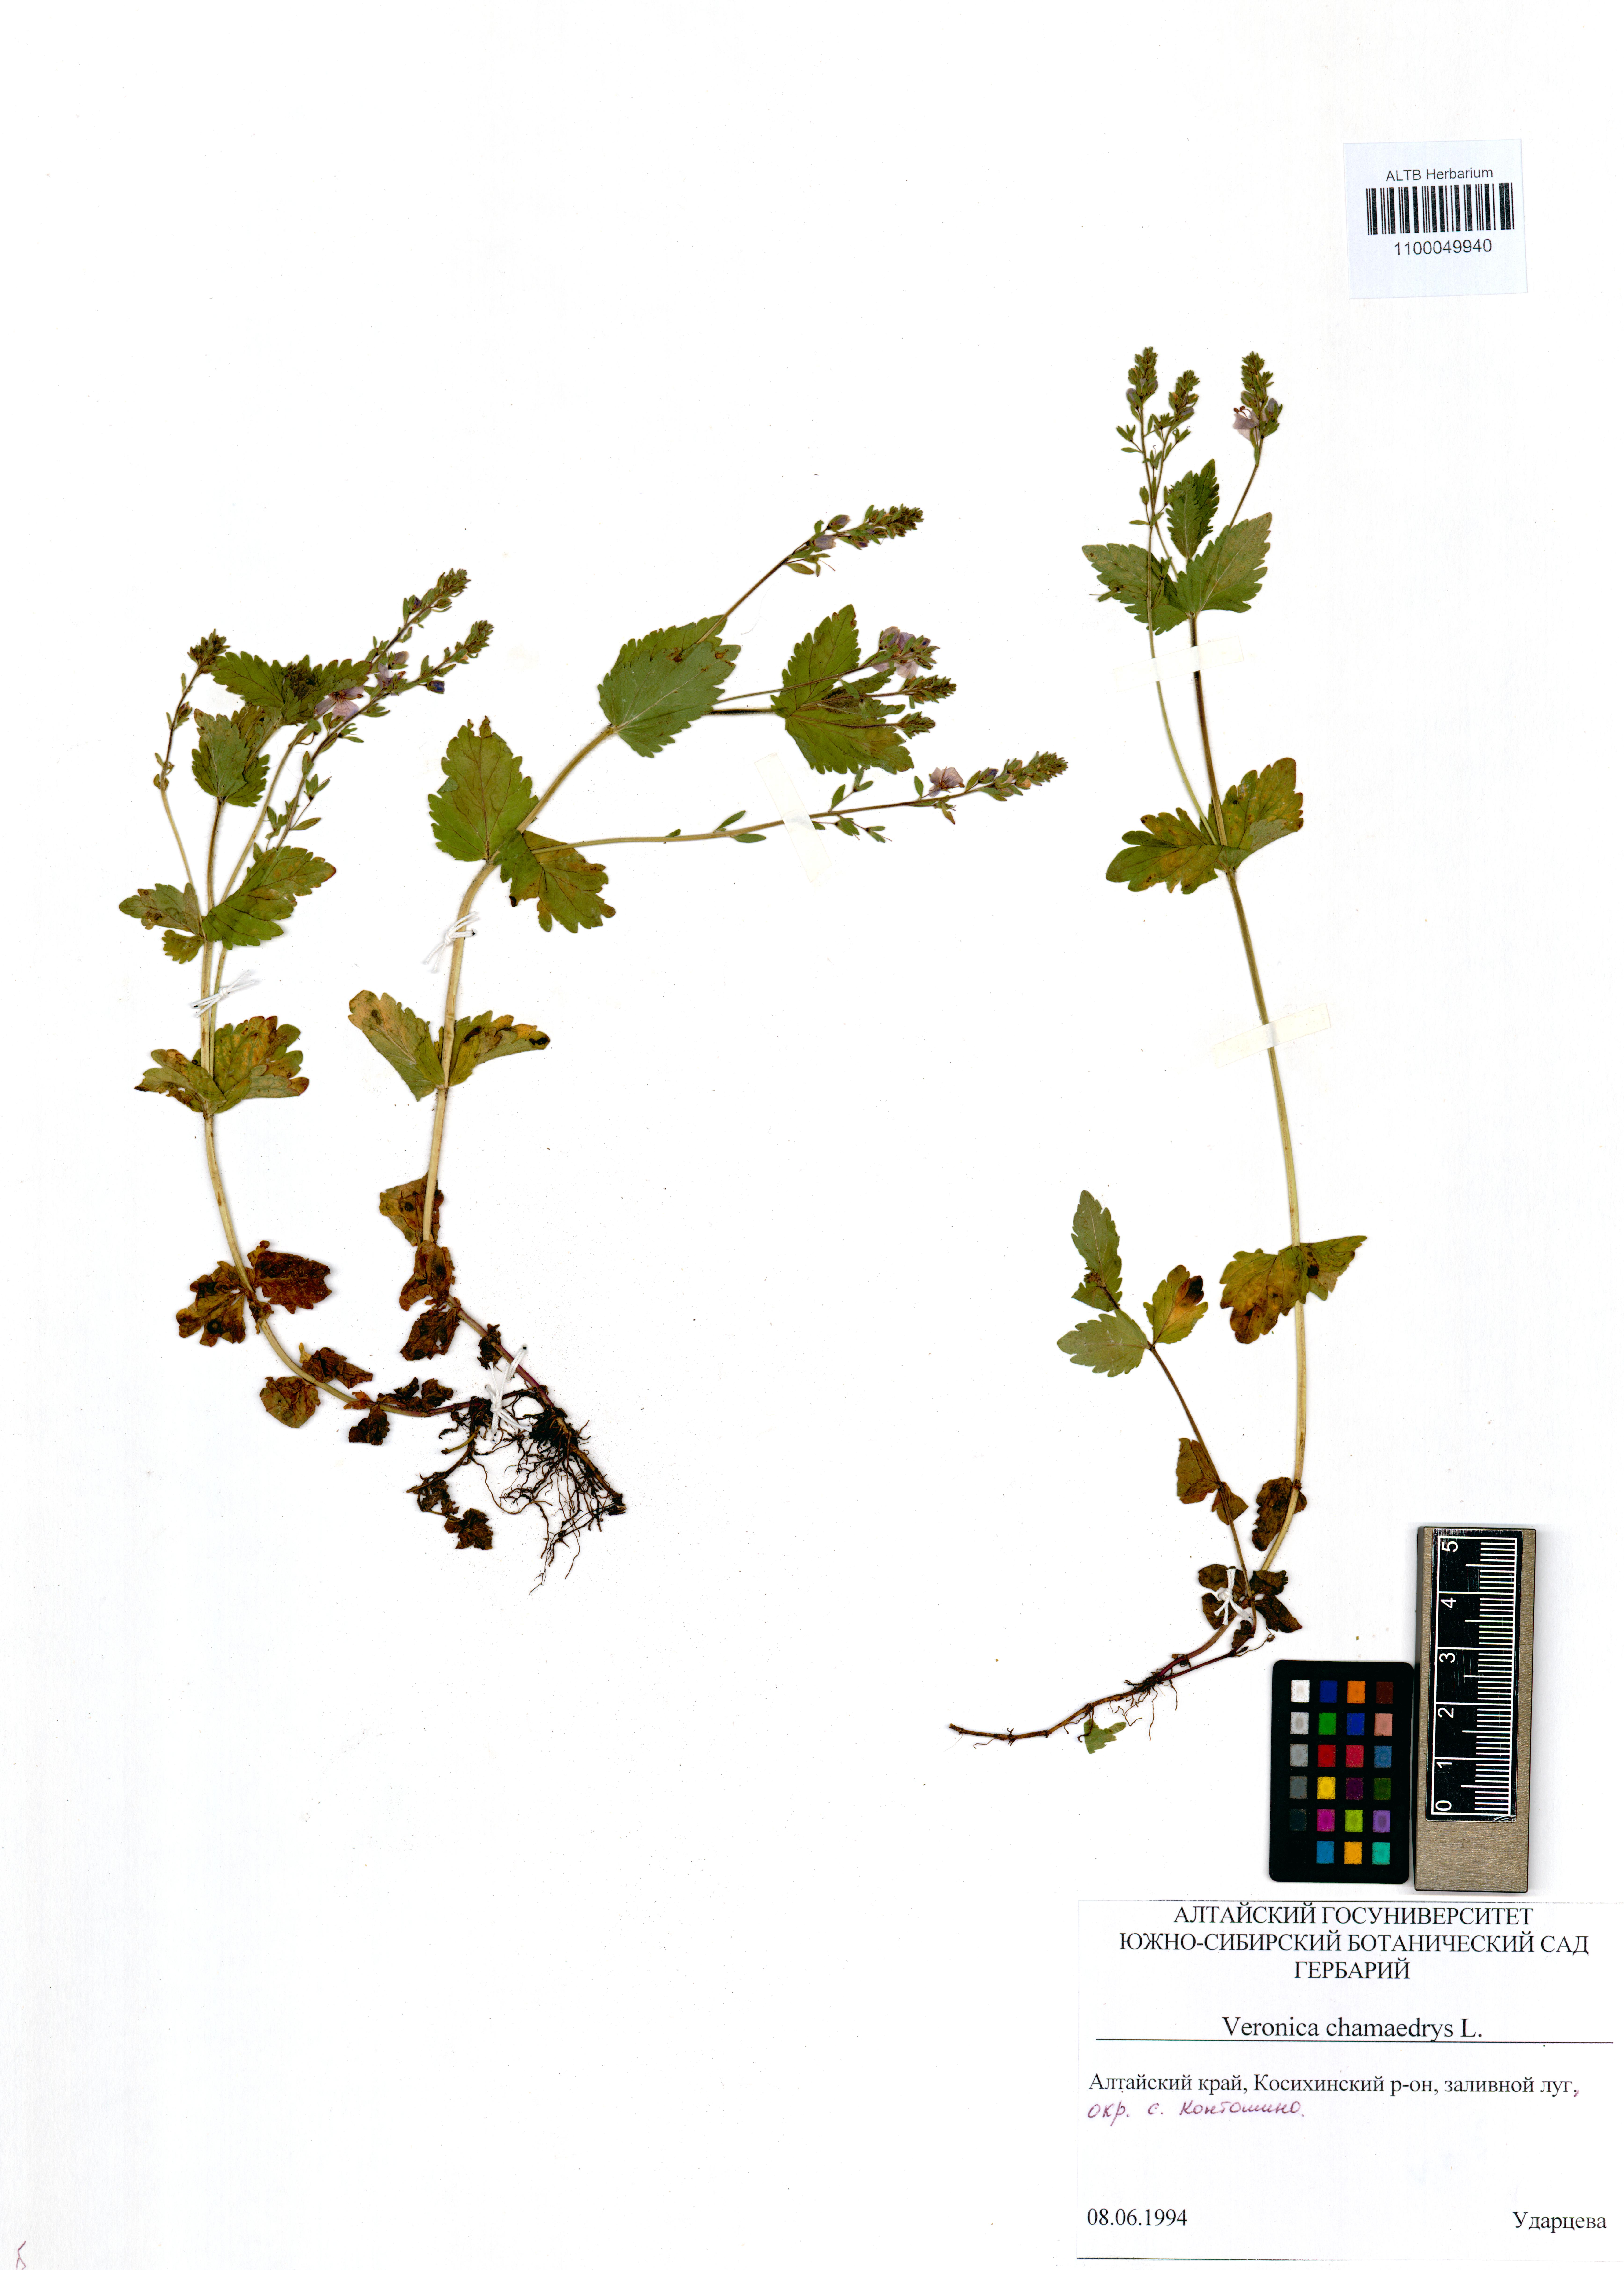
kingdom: Plantae
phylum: Tracheophyta
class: Magnoliopsida
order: Lamiales
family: Plantaginaceae
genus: Veronica
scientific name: Veronica chamaedrys
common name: Germander speedwell
